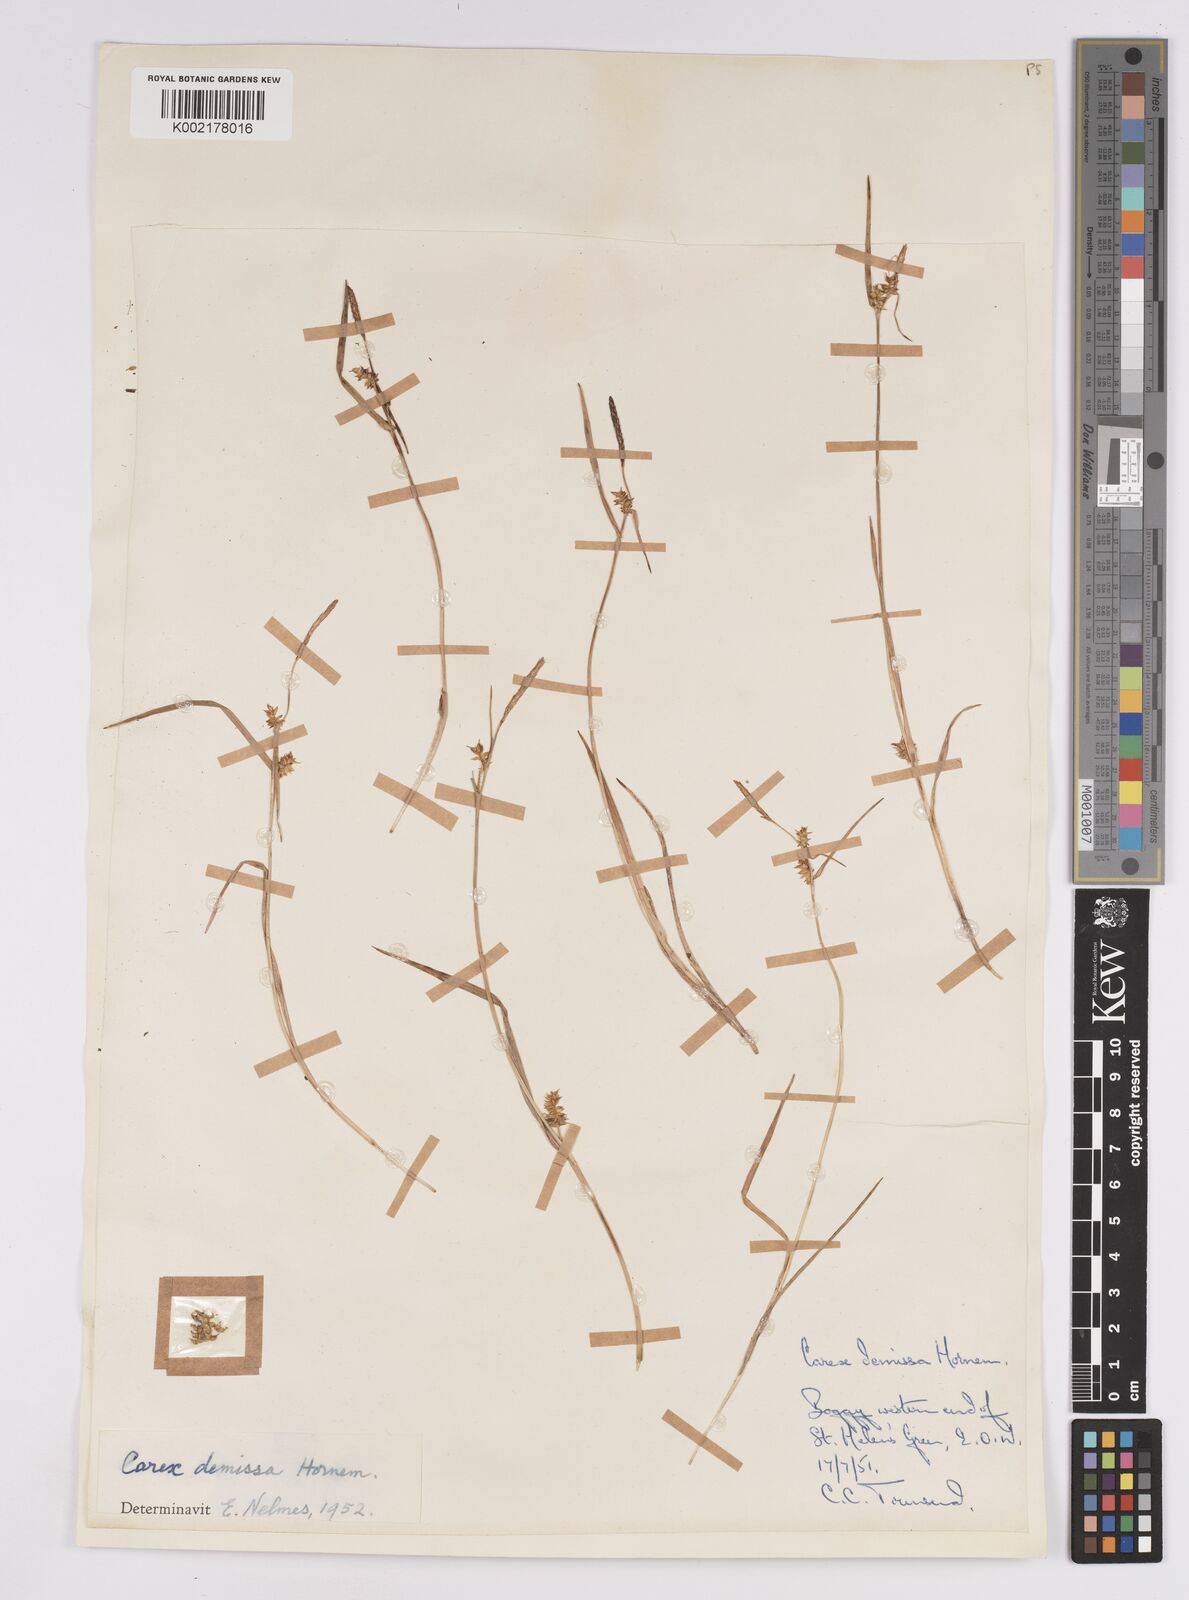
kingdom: Plantae
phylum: Tracheophyta
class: Liliopsida
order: Poales
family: Cyperaceae
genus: Carex
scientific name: Carex demissa
